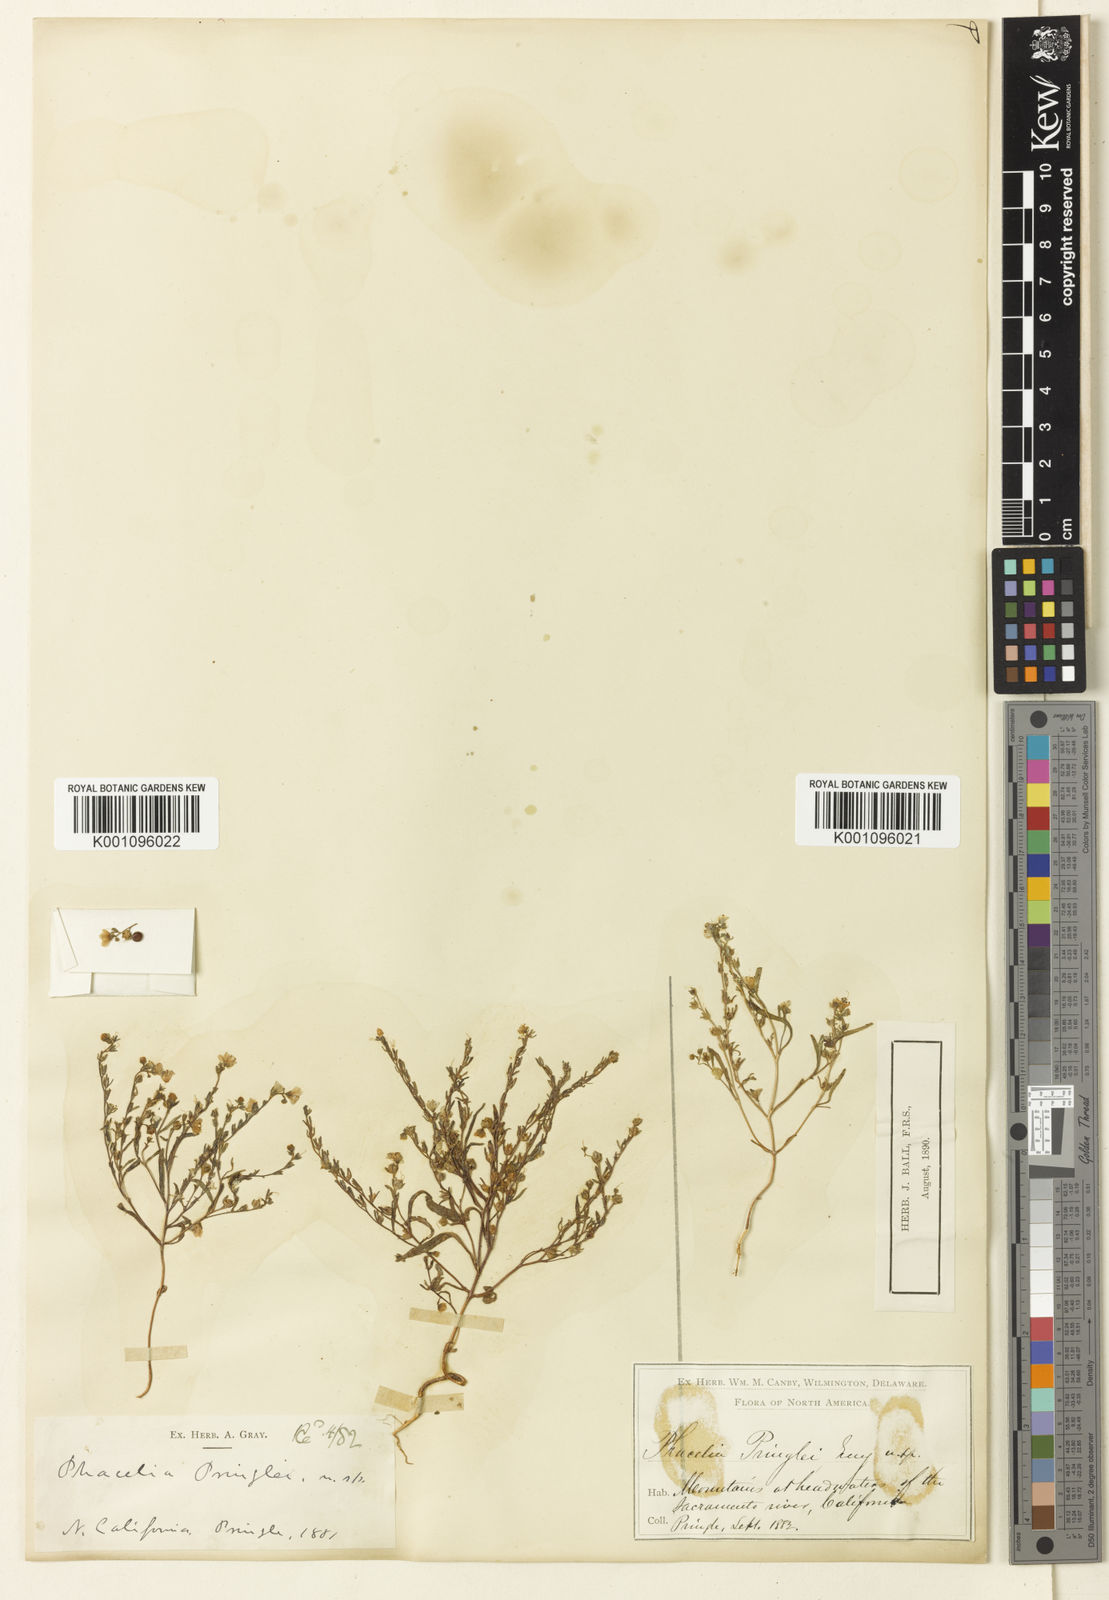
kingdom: Plantae
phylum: Tracheophyta
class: Magnoliopsida
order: Boraginales
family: Hydrophyllaceae
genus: Phacelia
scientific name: Phacelia pringlei
